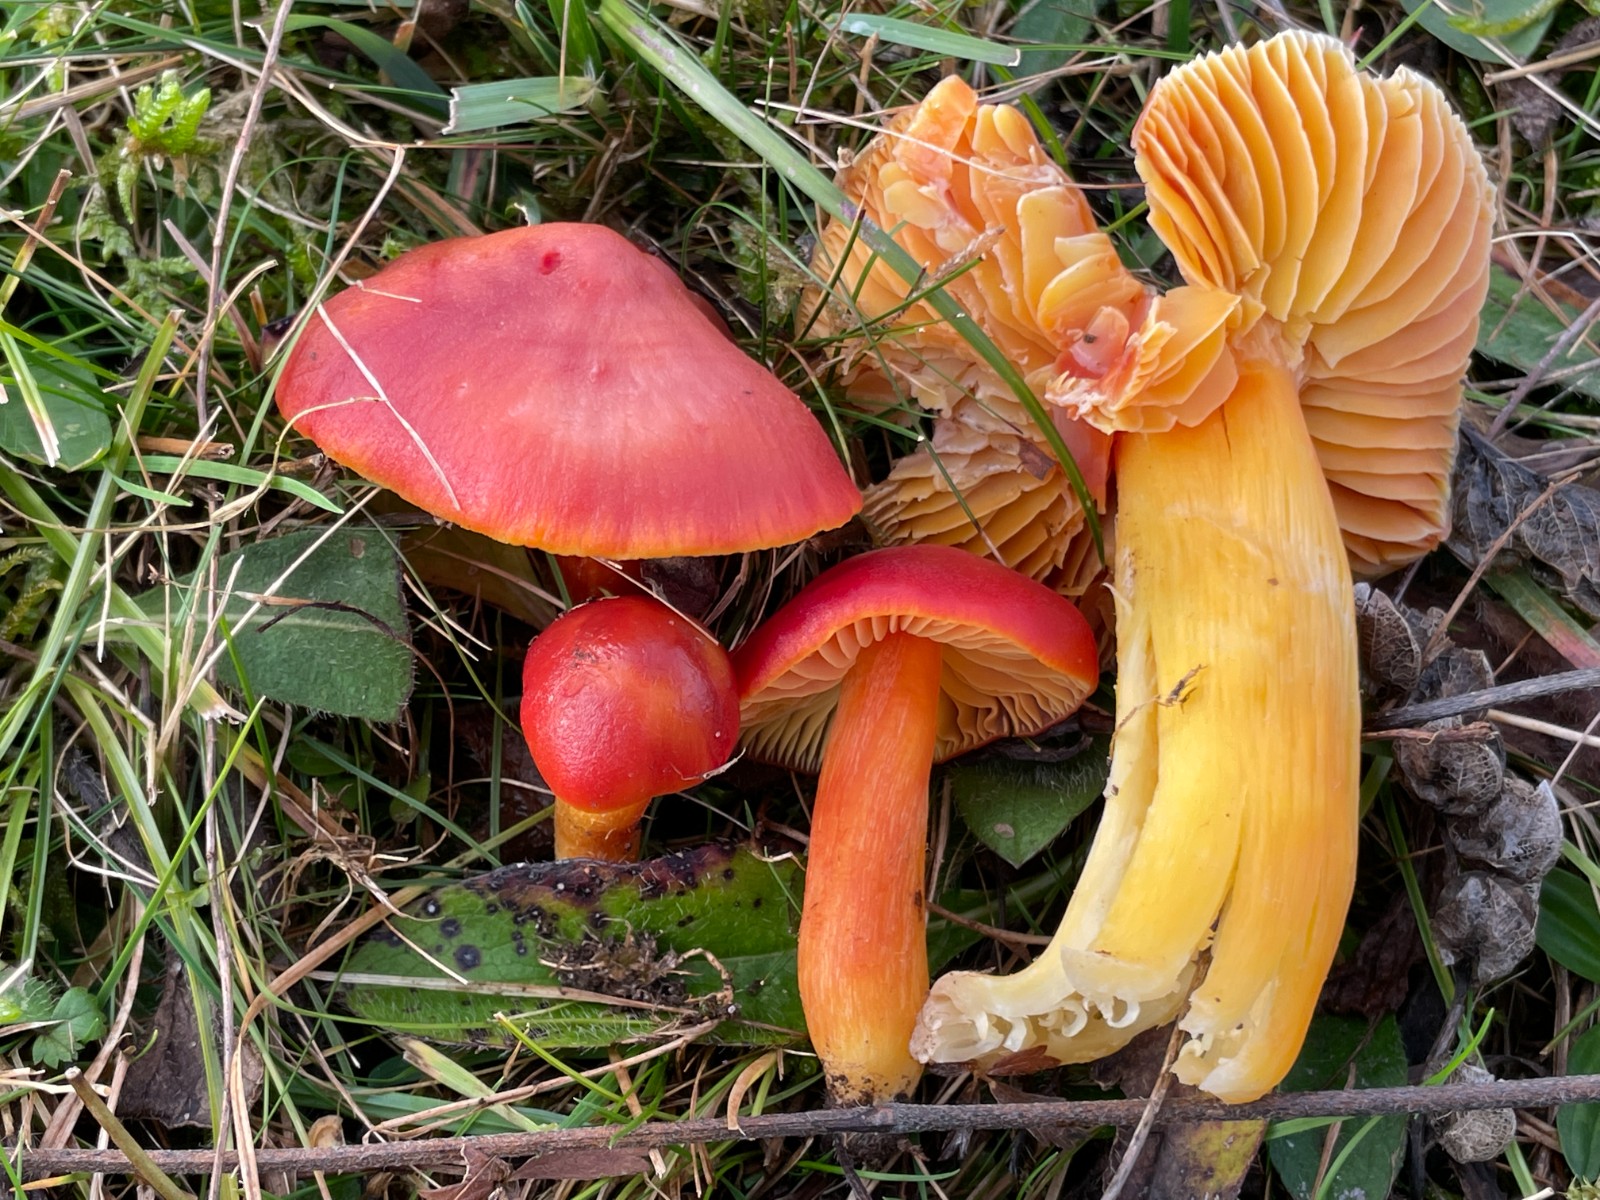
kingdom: Fungi
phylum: Basidiomycota
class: Agaricomycetes
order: Agaricales
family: Hygrophoraceae
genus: Hygrocybe
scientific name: Hygrocybe punicea
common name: skarlagen-vokshat
